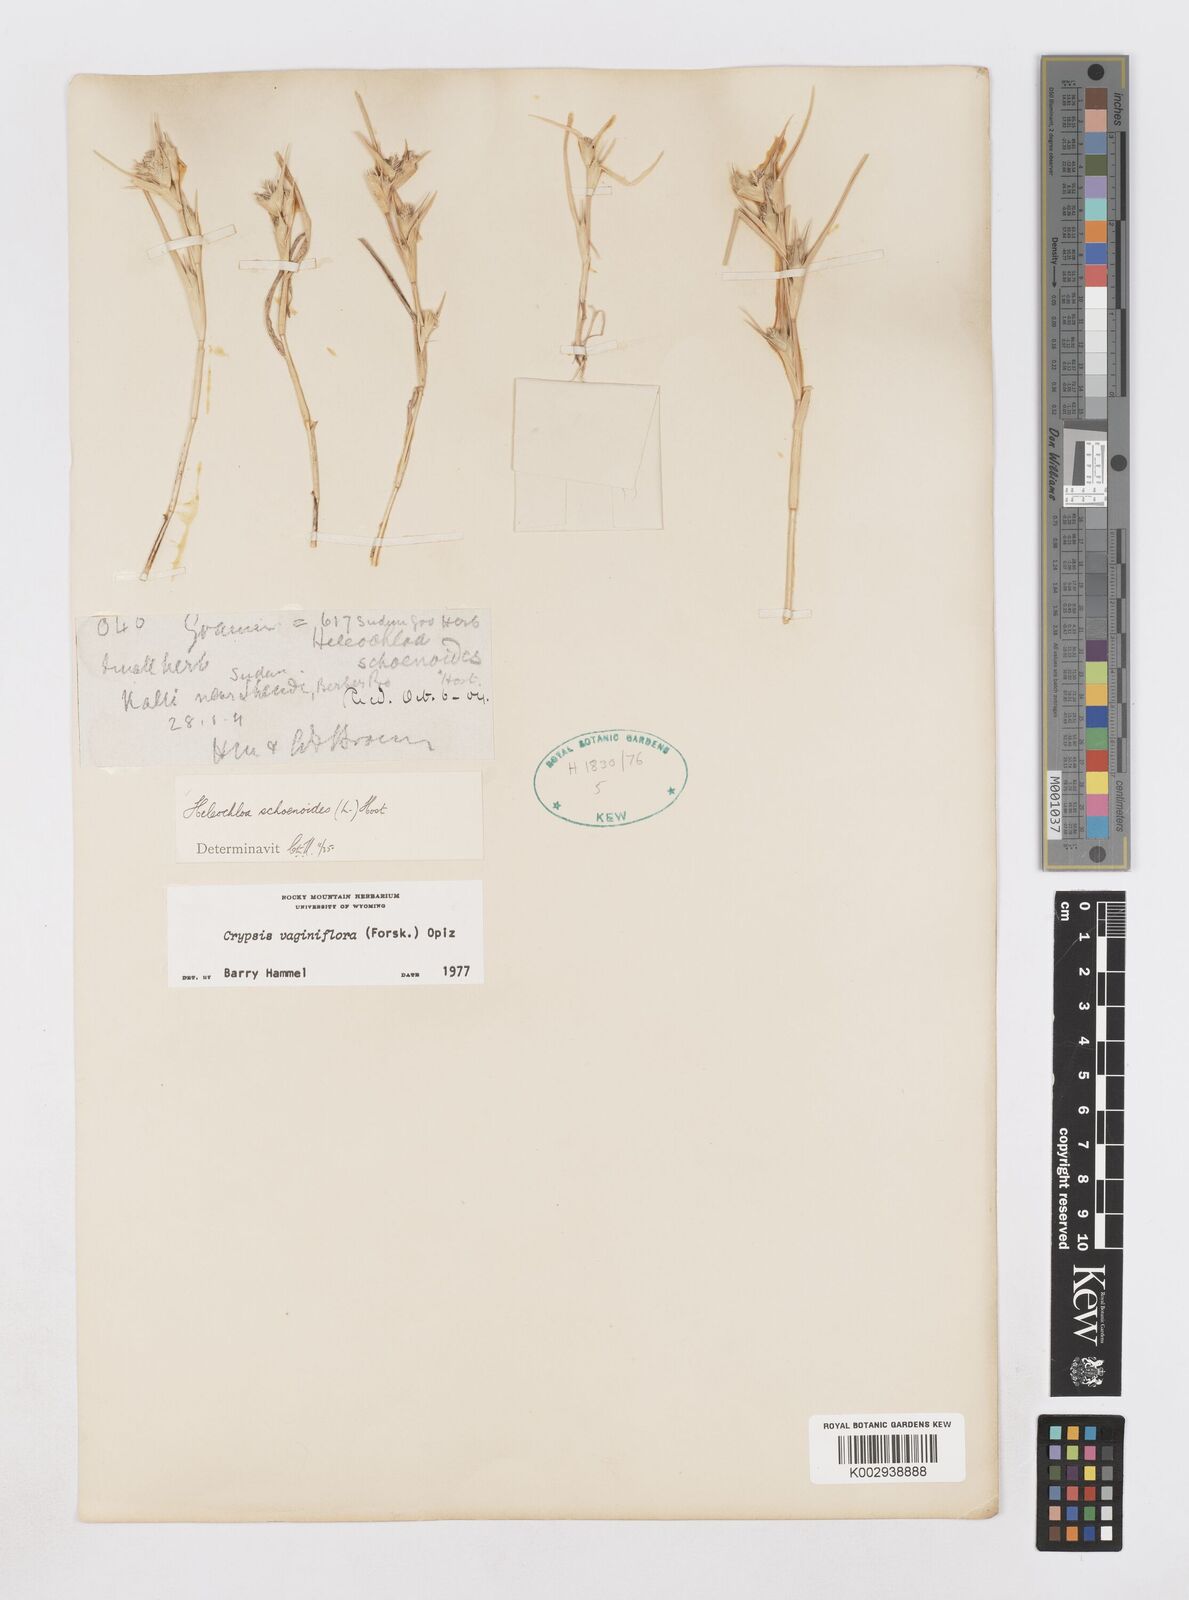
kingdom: Plantae
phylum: Tracheophyta
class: Liliopsida
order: Poales
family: Poaceae
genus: Sporobolus
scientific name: Sporobolus niliacus
